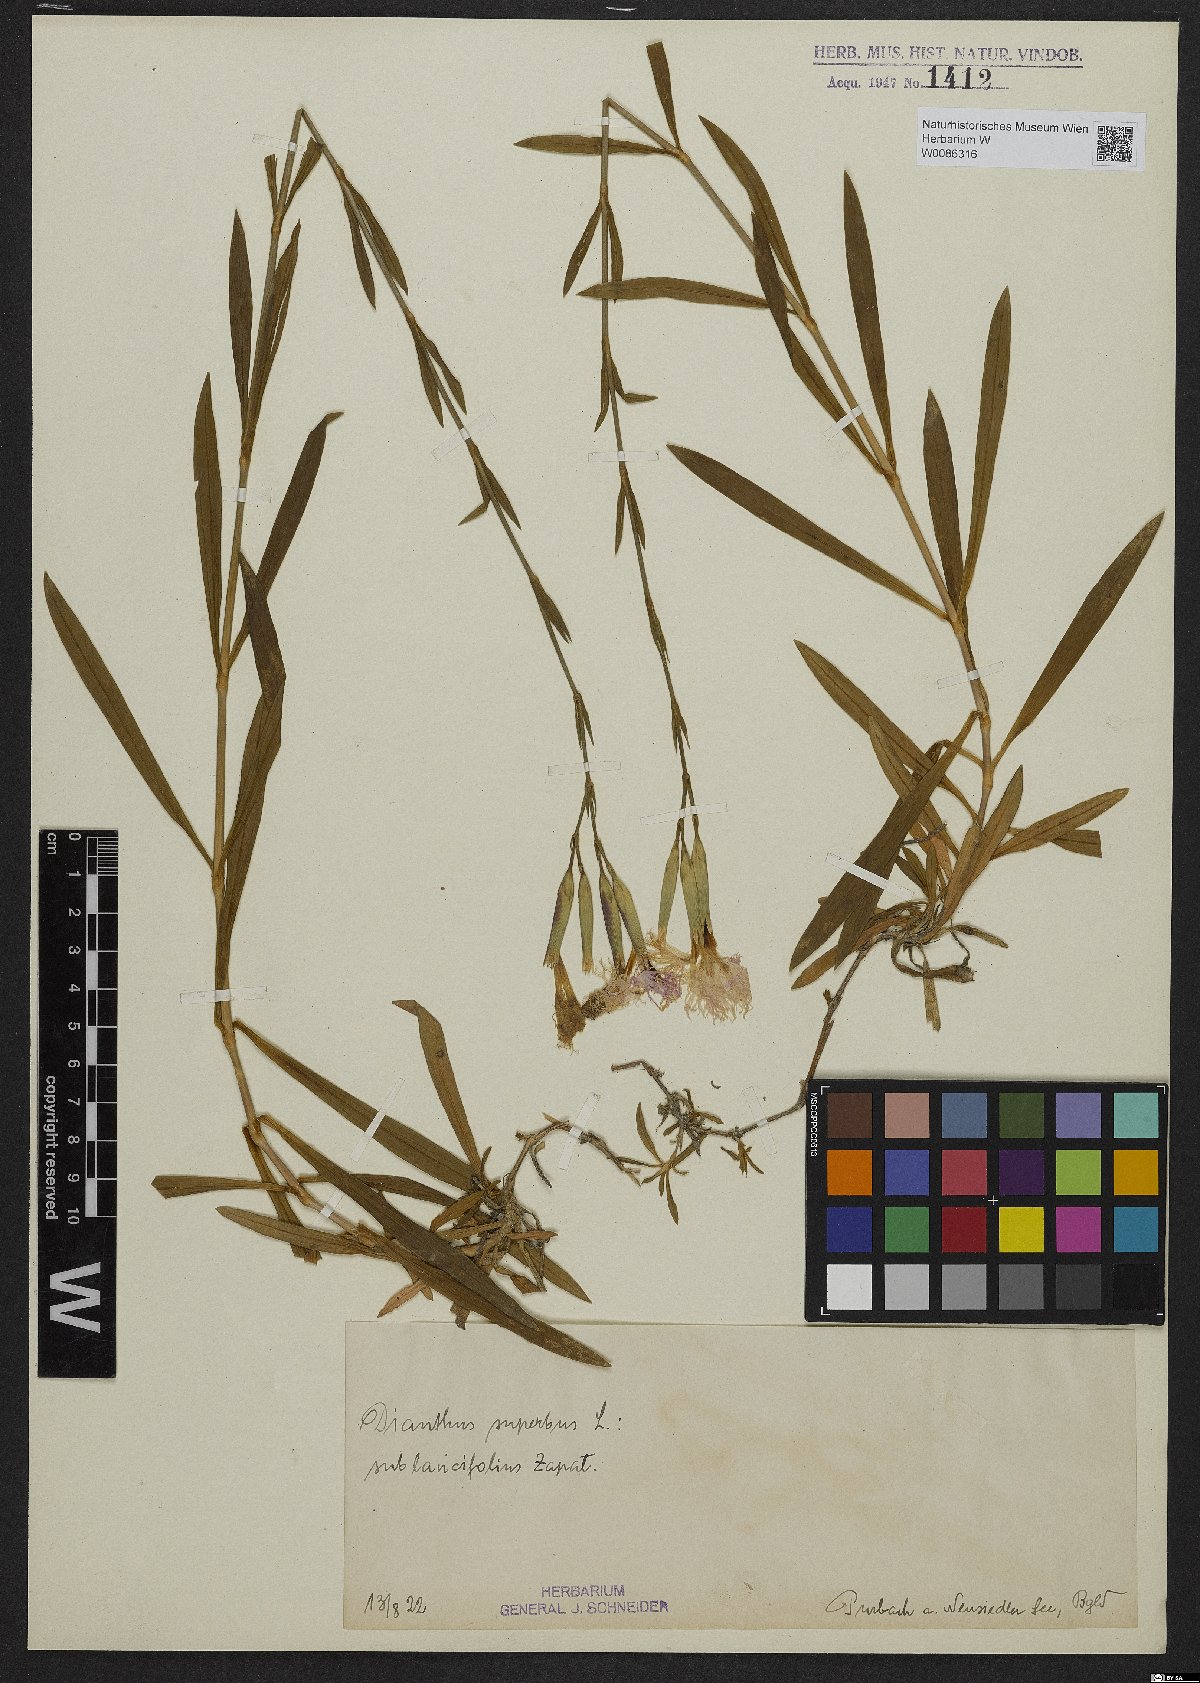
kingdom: Plantae
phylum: Tracheophyta
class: Magnoliopsida
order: Caryophyllales
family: Caryophyllaceae
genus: Dianthus
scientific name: Dianthus superbus
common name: Fringed pink
